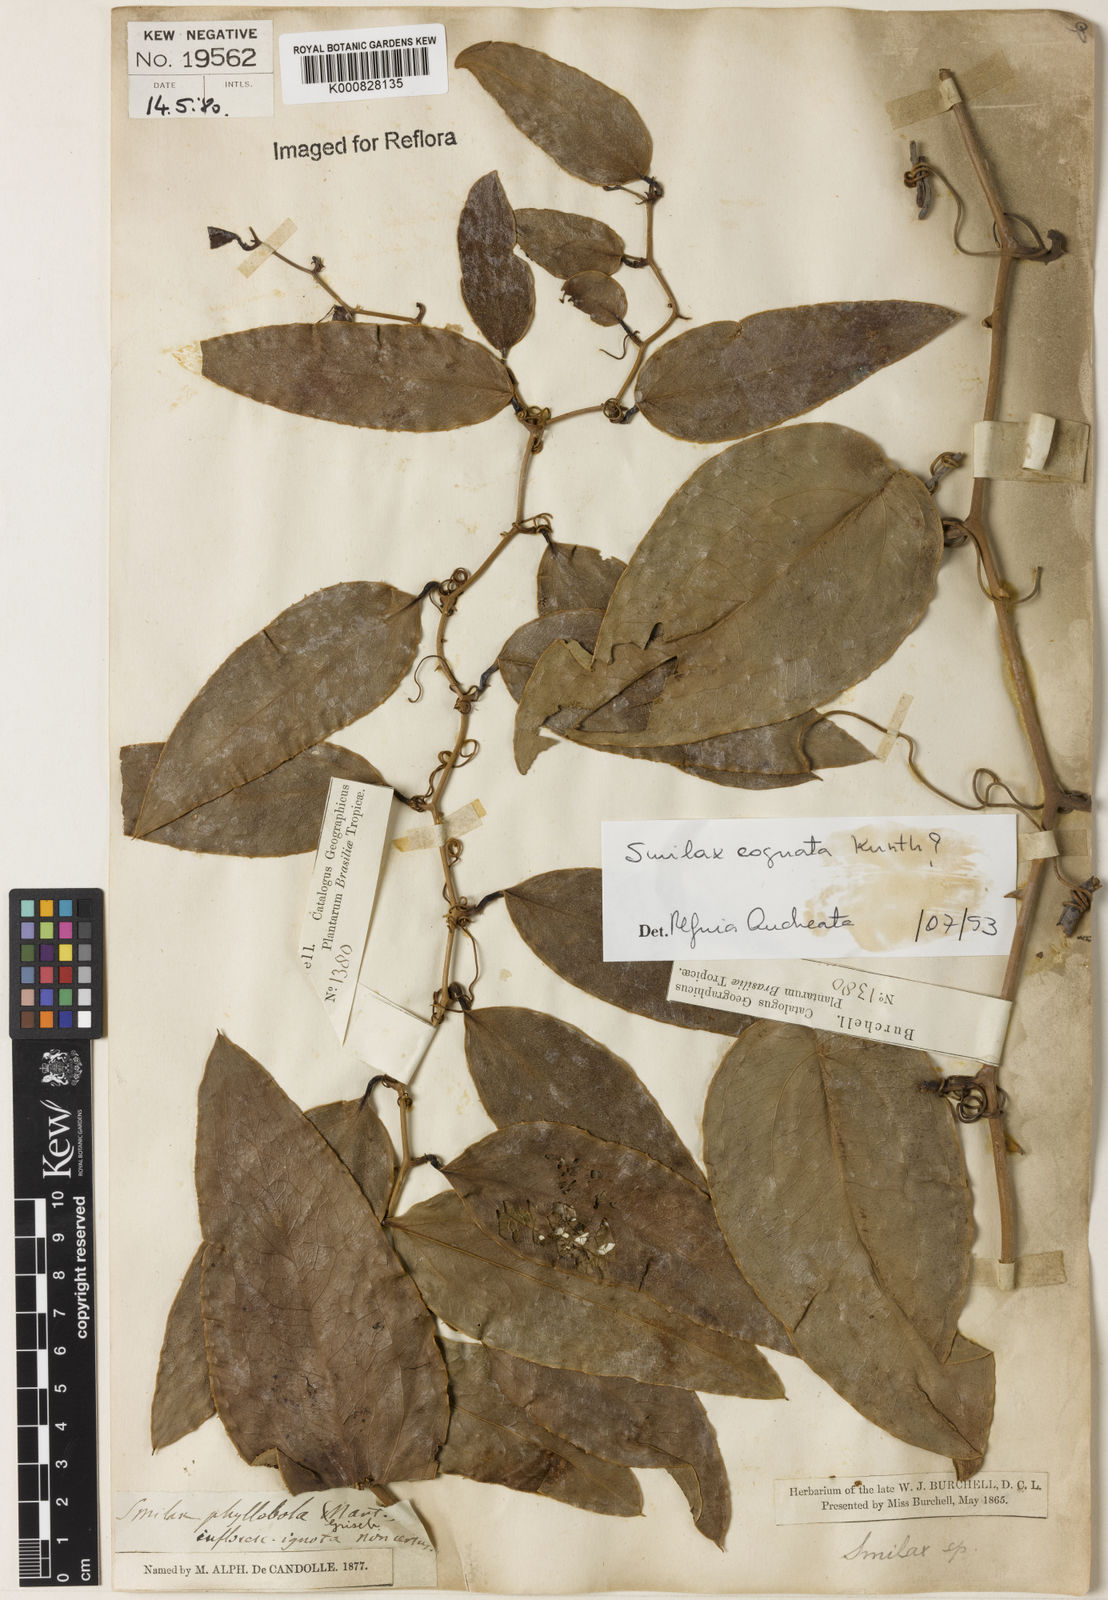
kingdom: Plantae
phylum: Tracheophyta
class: Liliopsida
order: Liliales
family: Smilacaceae
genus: Smilax
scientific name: Smilax cognata
